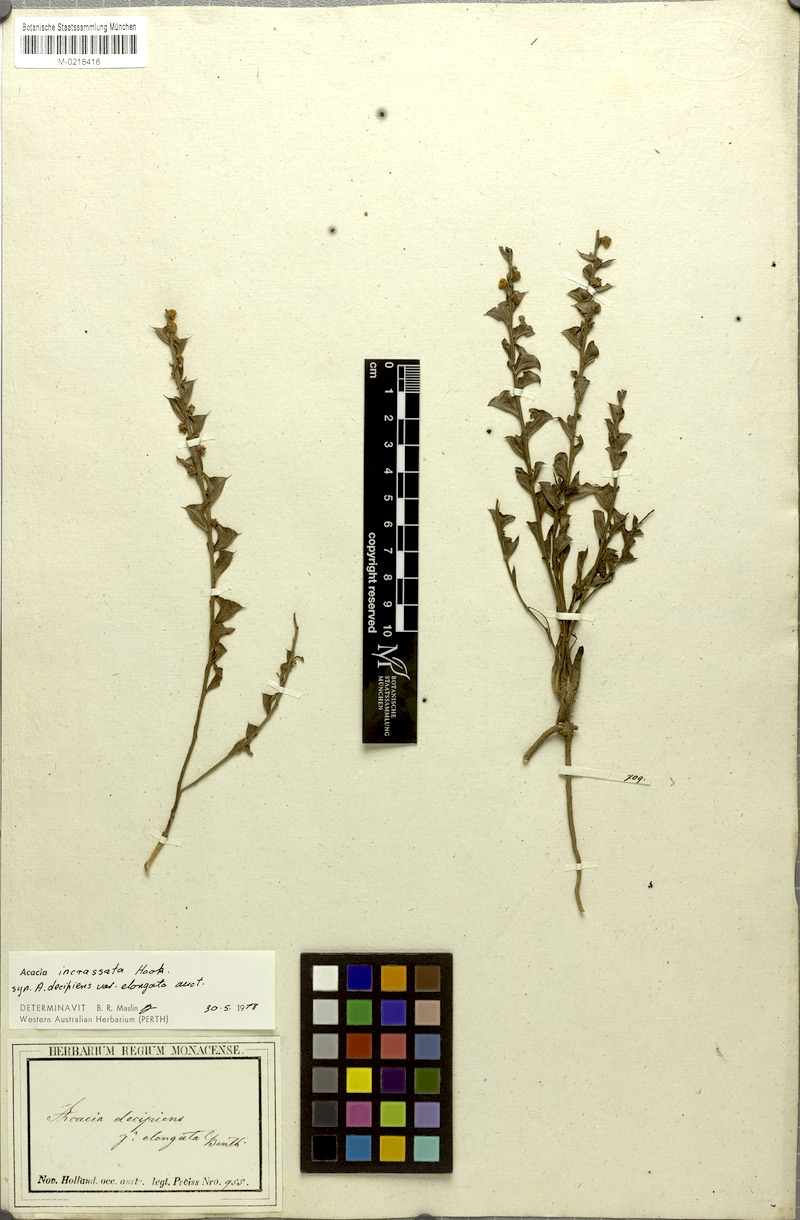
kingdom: Plantae
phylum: Tracheophyta
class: Magnoliopsida
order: Fabales
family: Fabaceae
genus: Acacia
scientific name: Acacia incrassata
